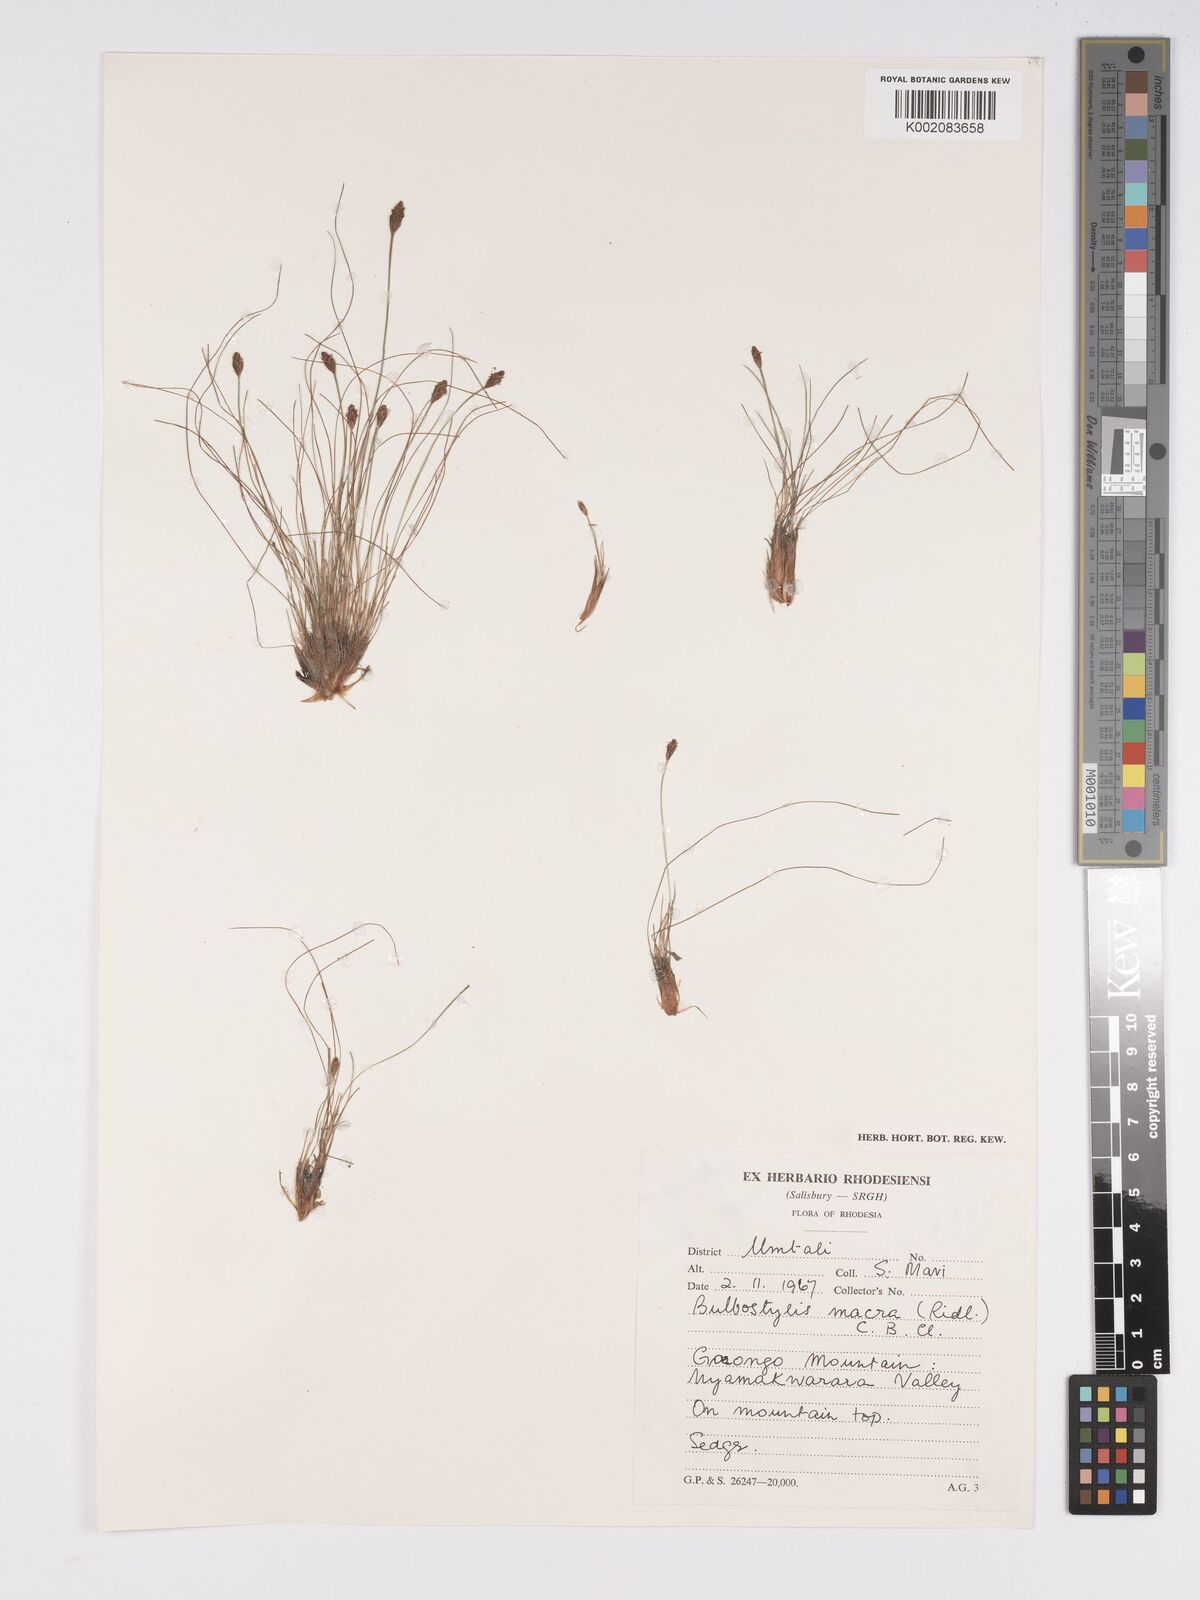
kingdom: Plantae
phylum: Tracheophyta
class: Liliopsida
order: Poales
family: Cyperaceae
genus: Bulbostylis
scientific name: Bulbostylis macra
